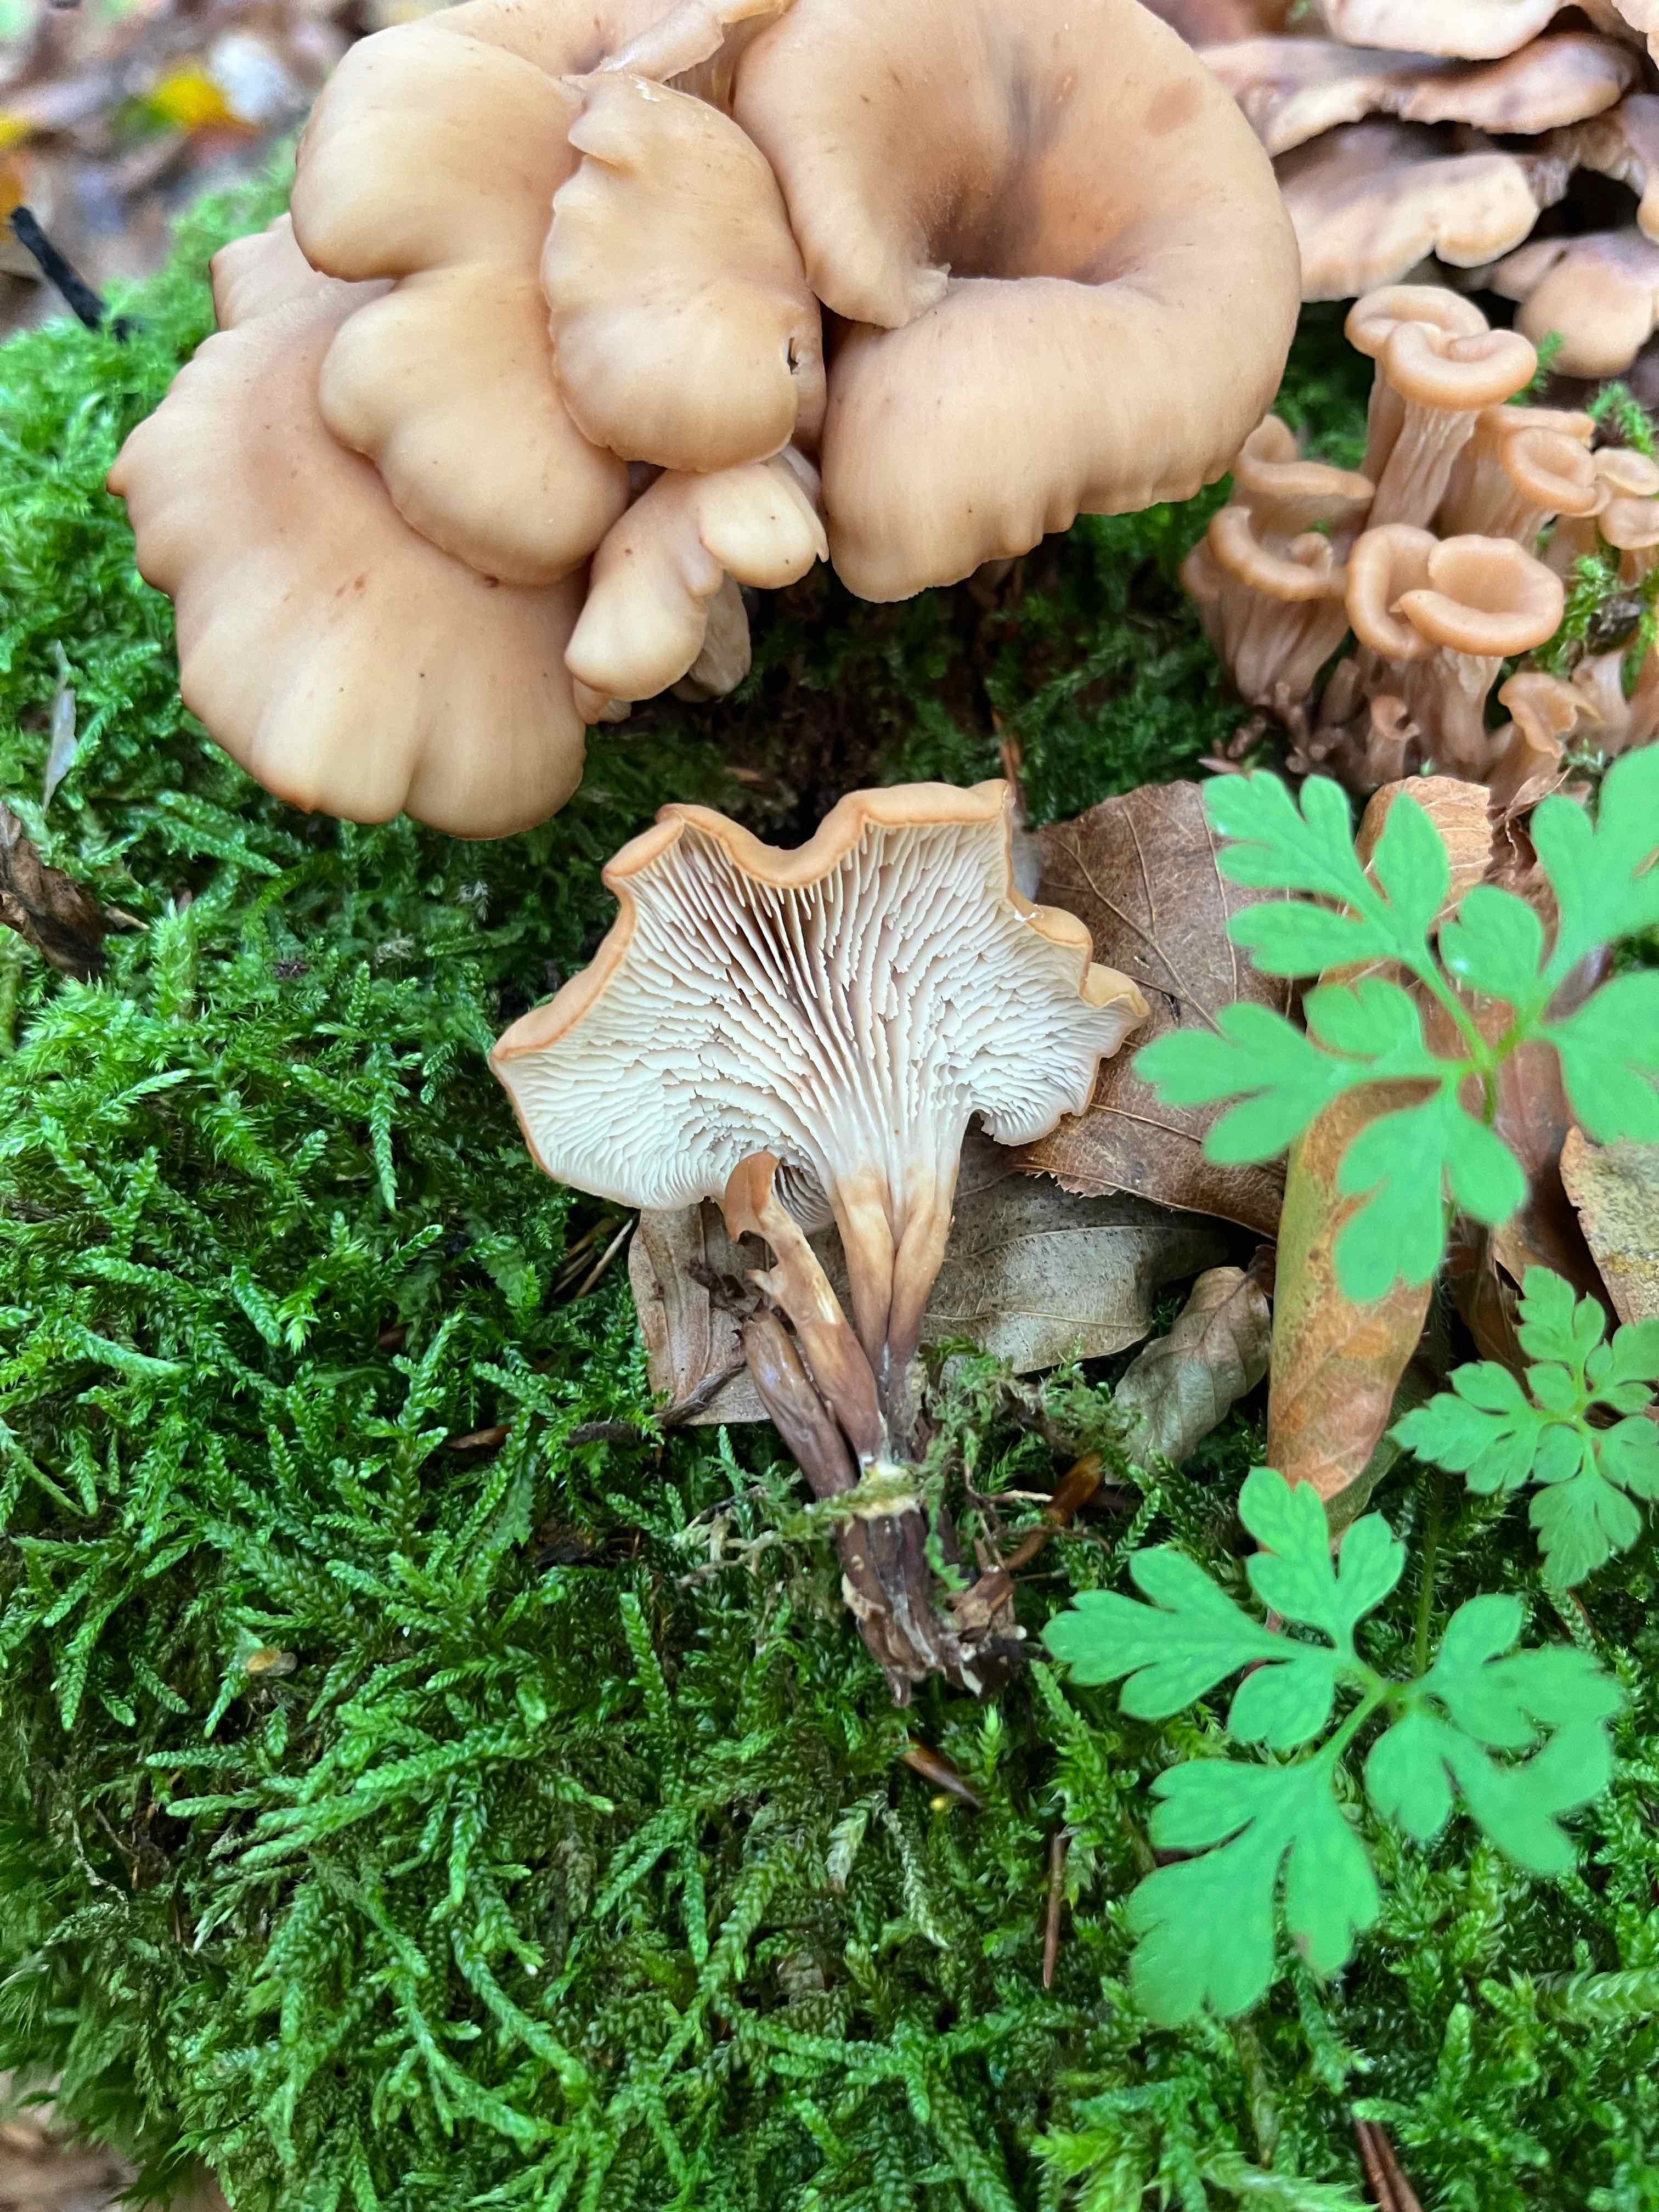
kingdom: Fungi
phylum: Basidiomycota
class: Agaricomycetes
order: Russulales
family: Auriscalpiaceae
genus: Lentinellus
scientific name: Lentinellus cochleatus
